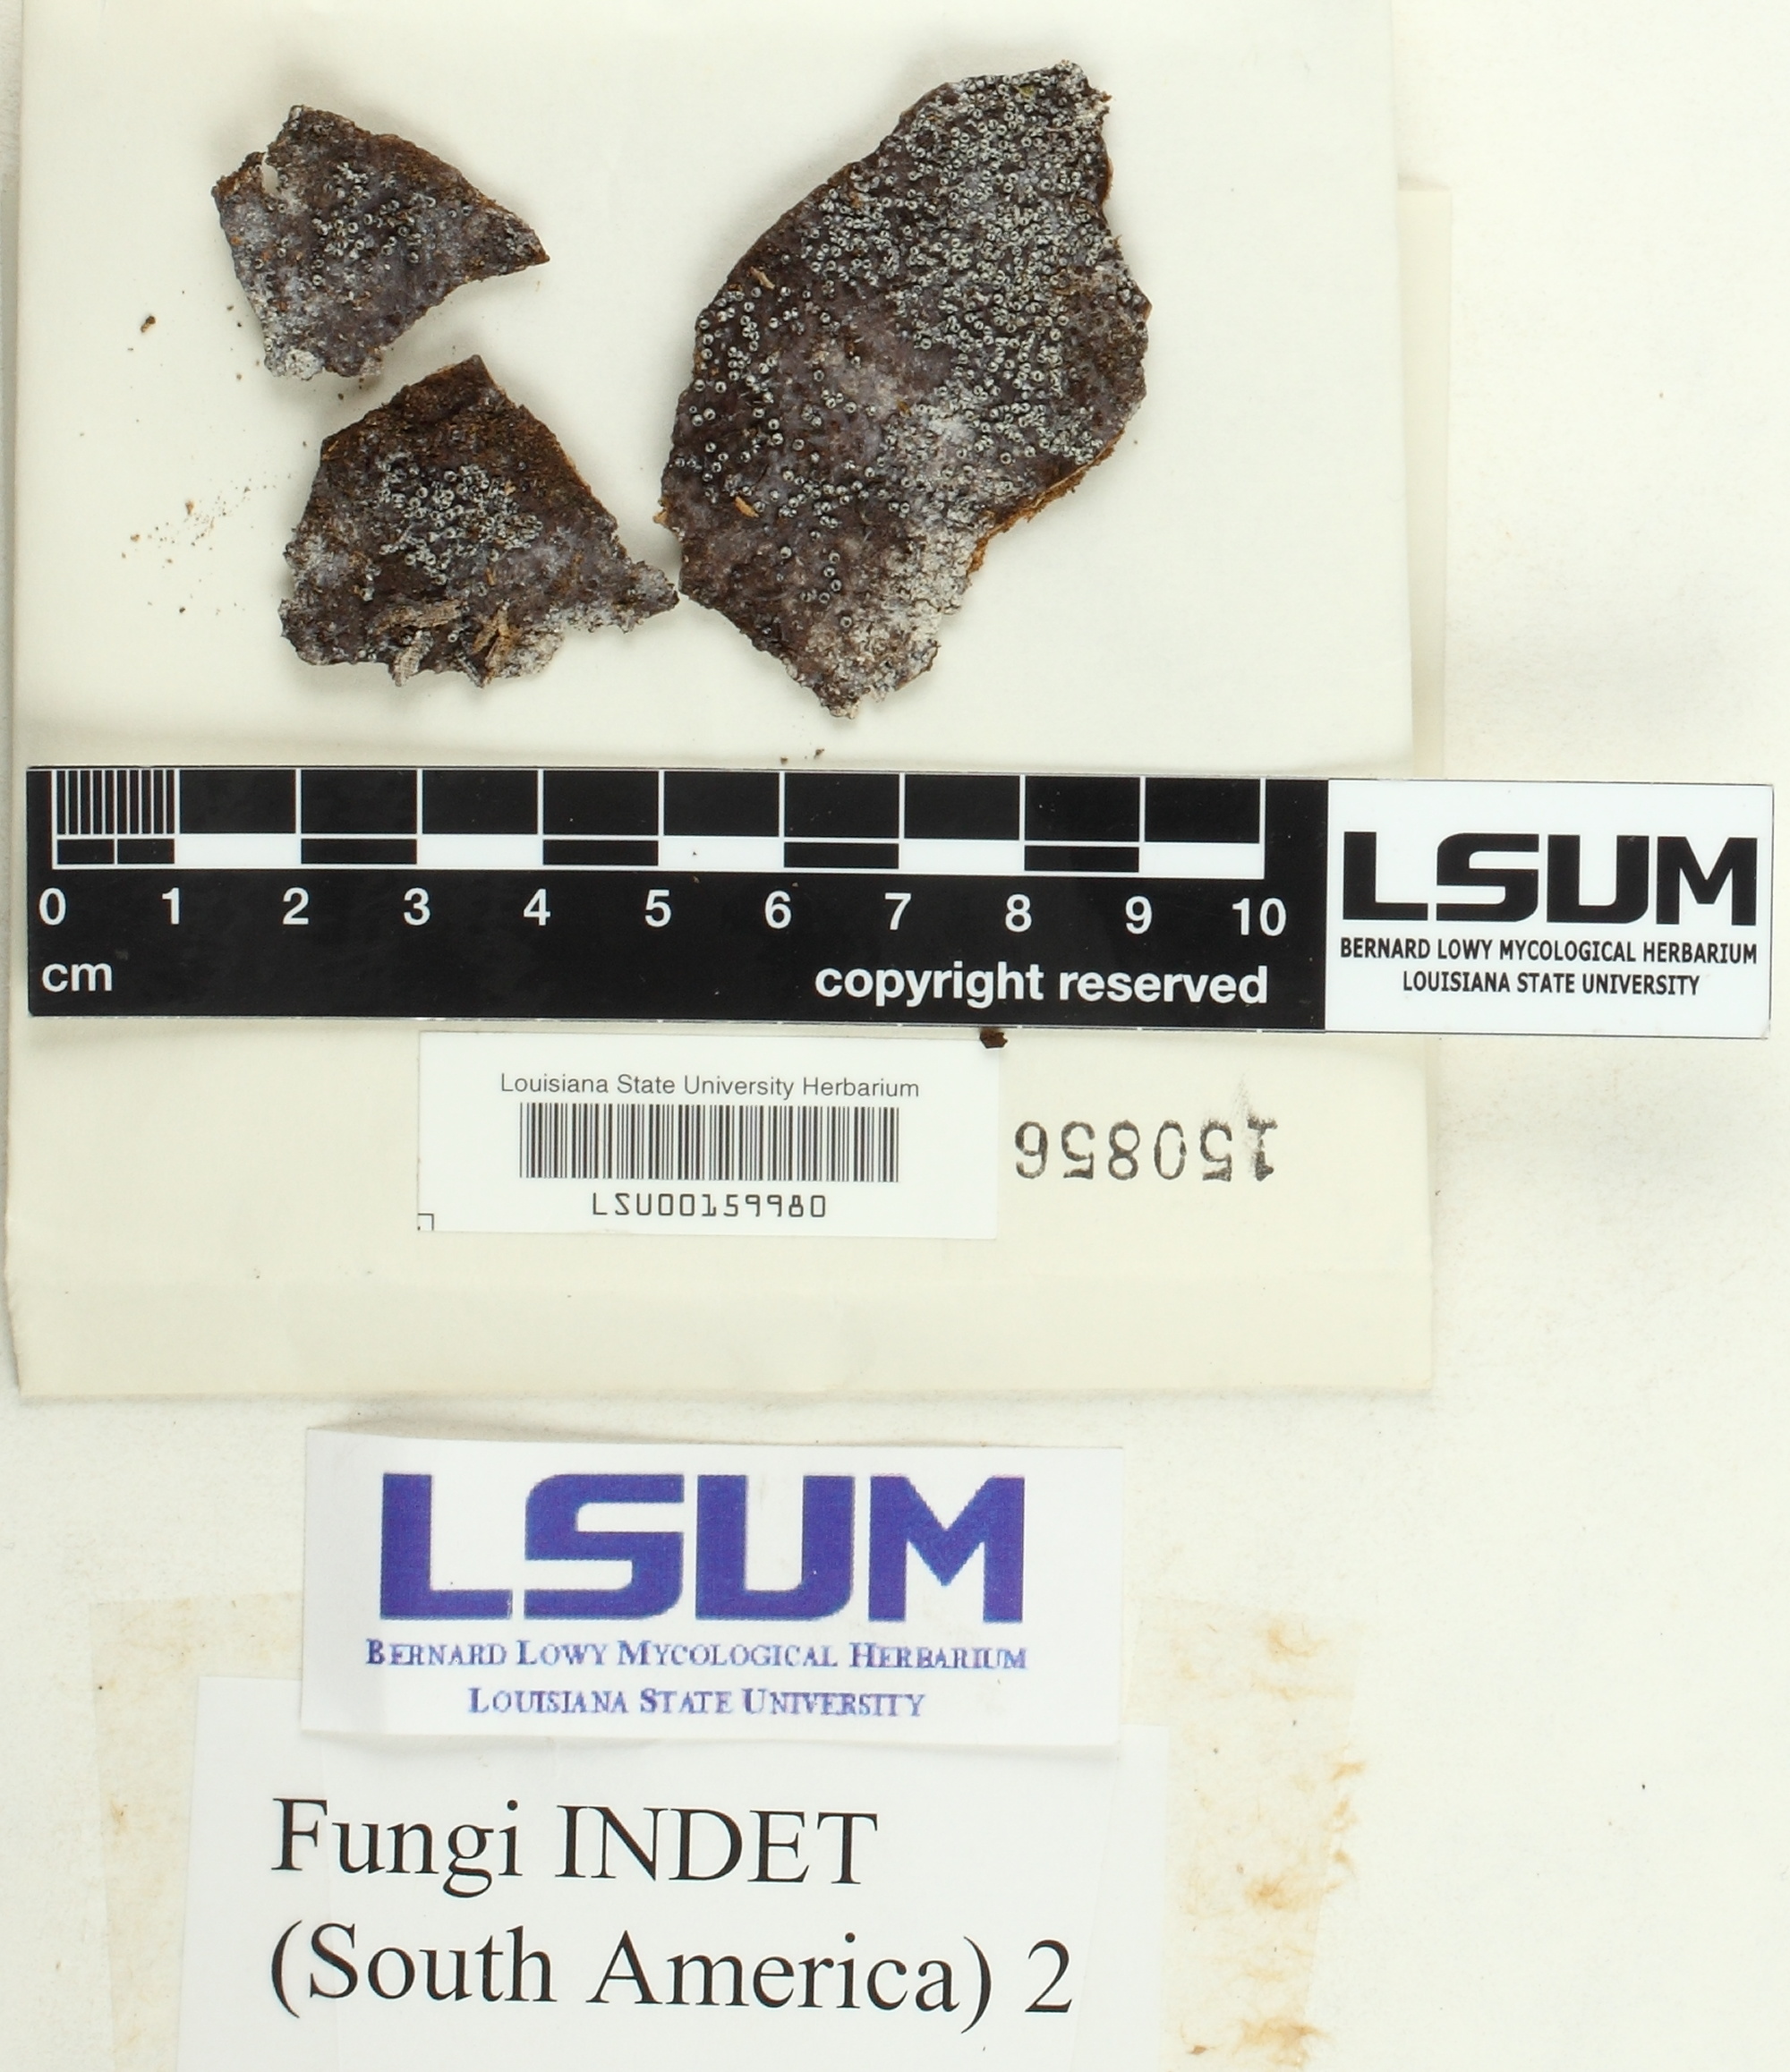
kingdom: Fungi
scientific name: Fungi
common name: Fungi
